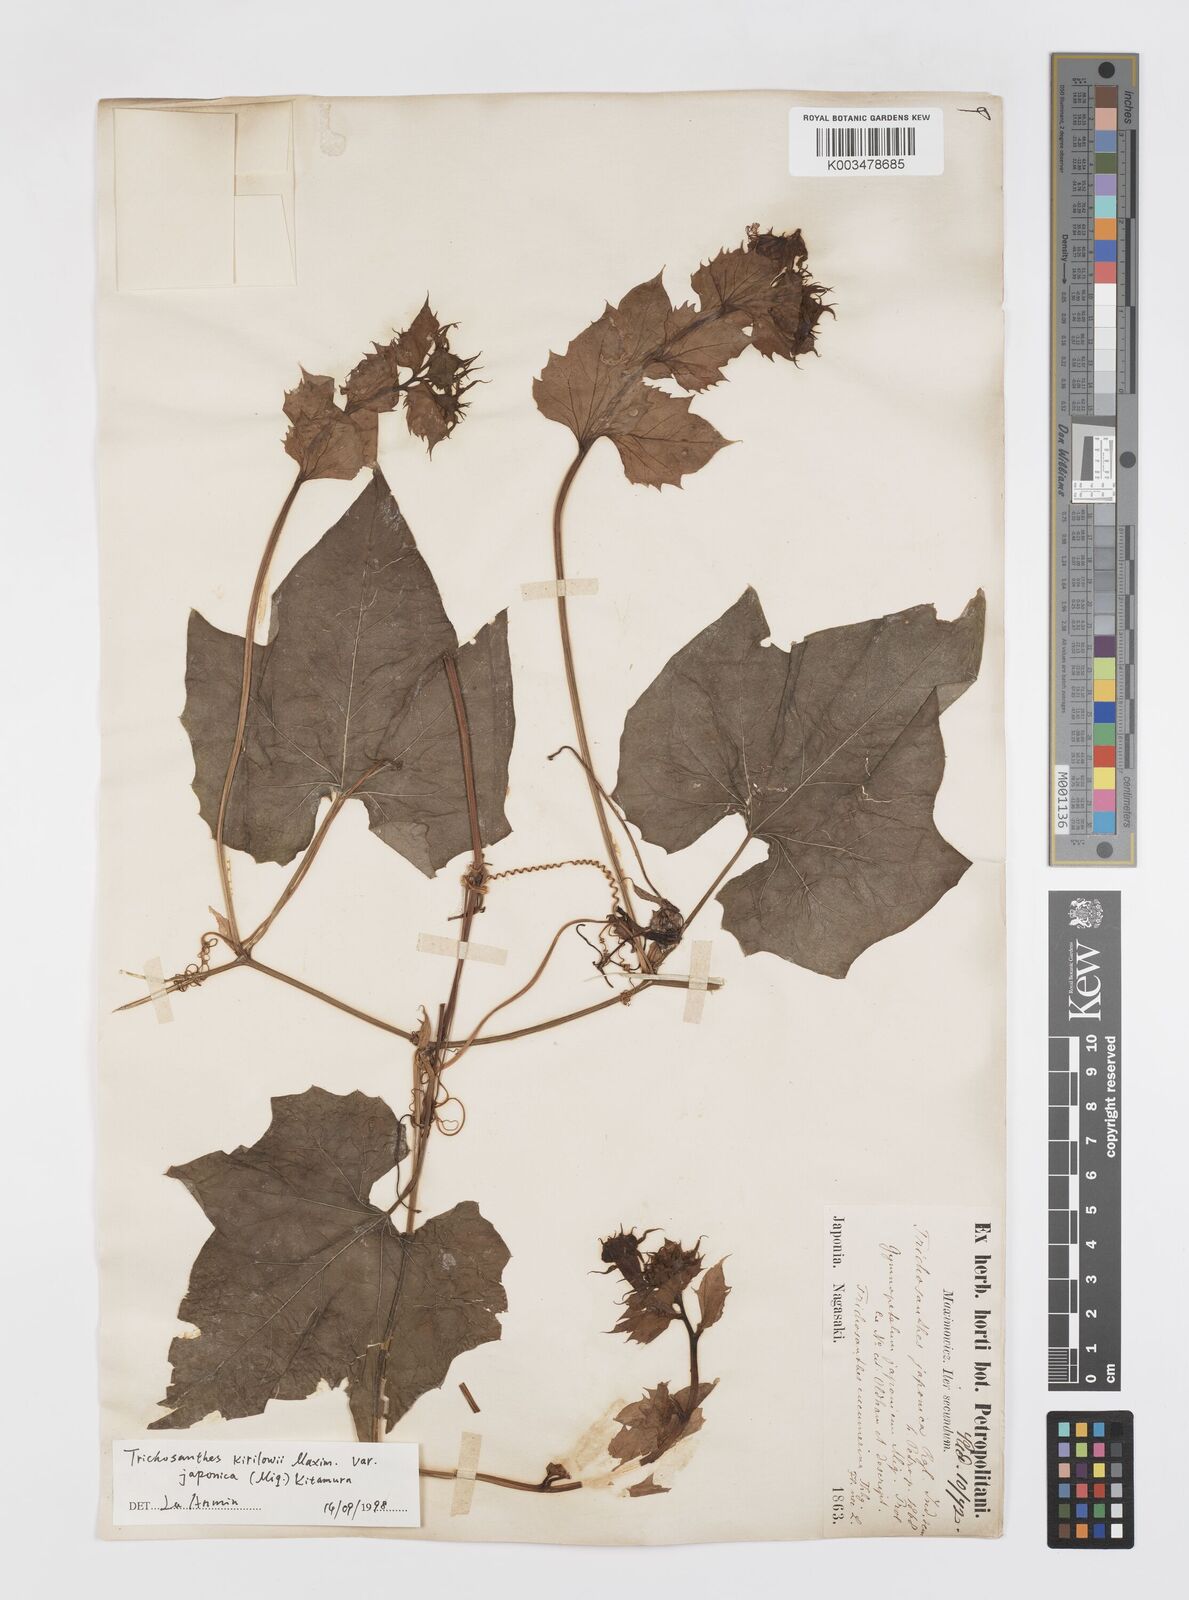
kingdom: Plantae
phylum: Tracheophyta
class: Magnoliopsida
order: Cucurbitales
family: Cucurbitaceae
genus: Trichosanthes
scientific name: Trichosanthes kirilowii
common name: Chinese-cucumber
